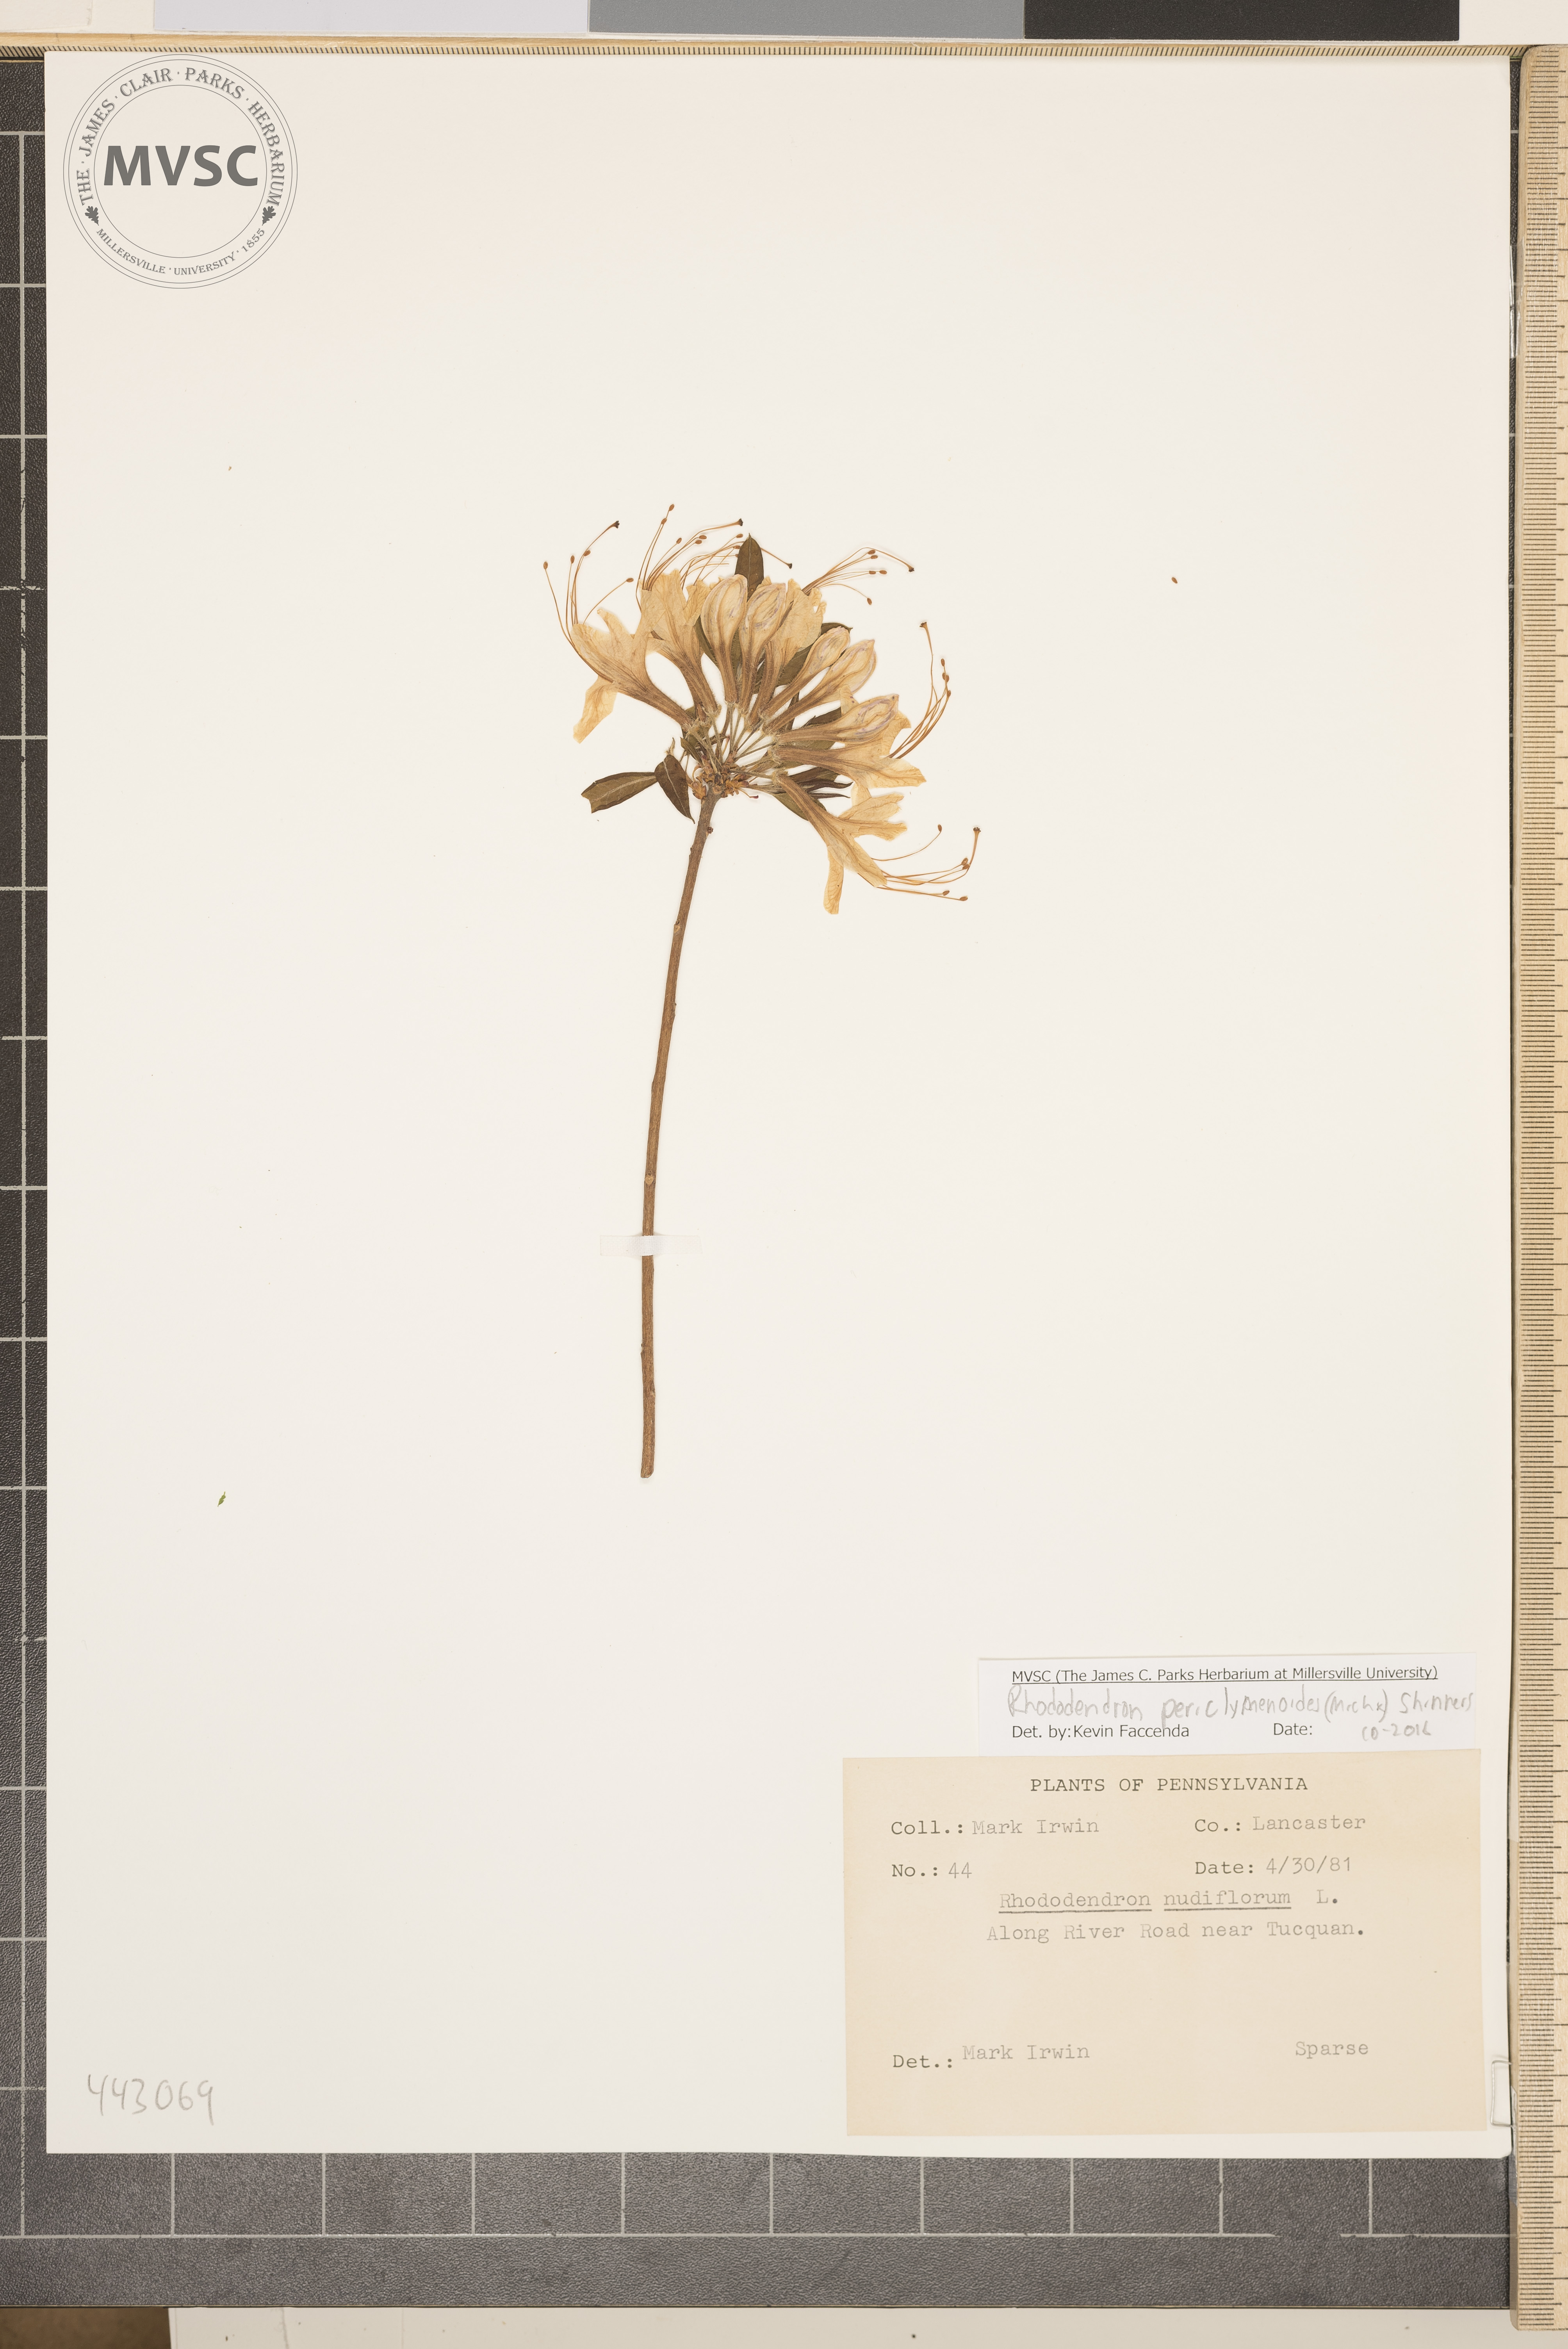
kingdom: Plantae
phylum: Tracheophyta
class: Magnoliopsida
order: Ericales
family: Ericaceae
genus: Rhododendron
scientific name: Rhododendron periclymenoides
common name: Election-pink
